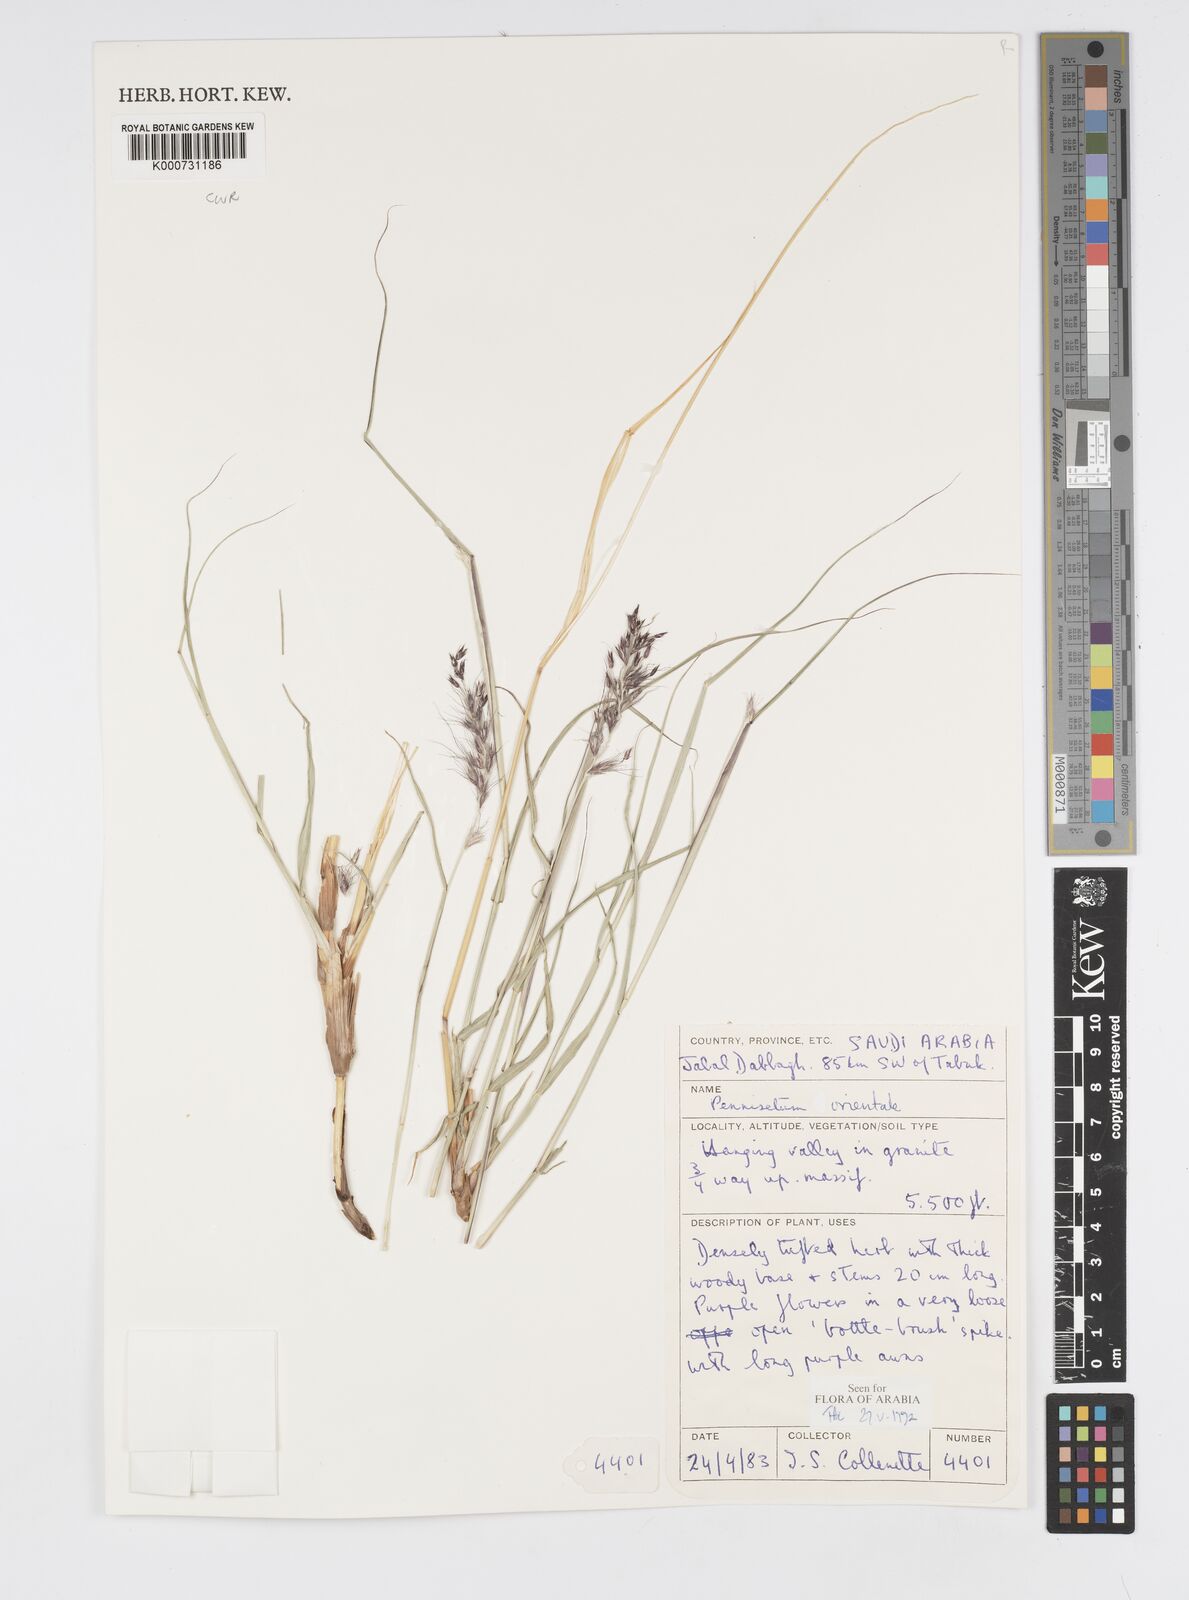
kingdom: Plantae
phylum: Tracheophyta
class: Liliopsida
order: Poales
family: Poaceae
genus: Cenchrus
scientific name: Cenchrus orientalis
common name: Oriental fountain grass
